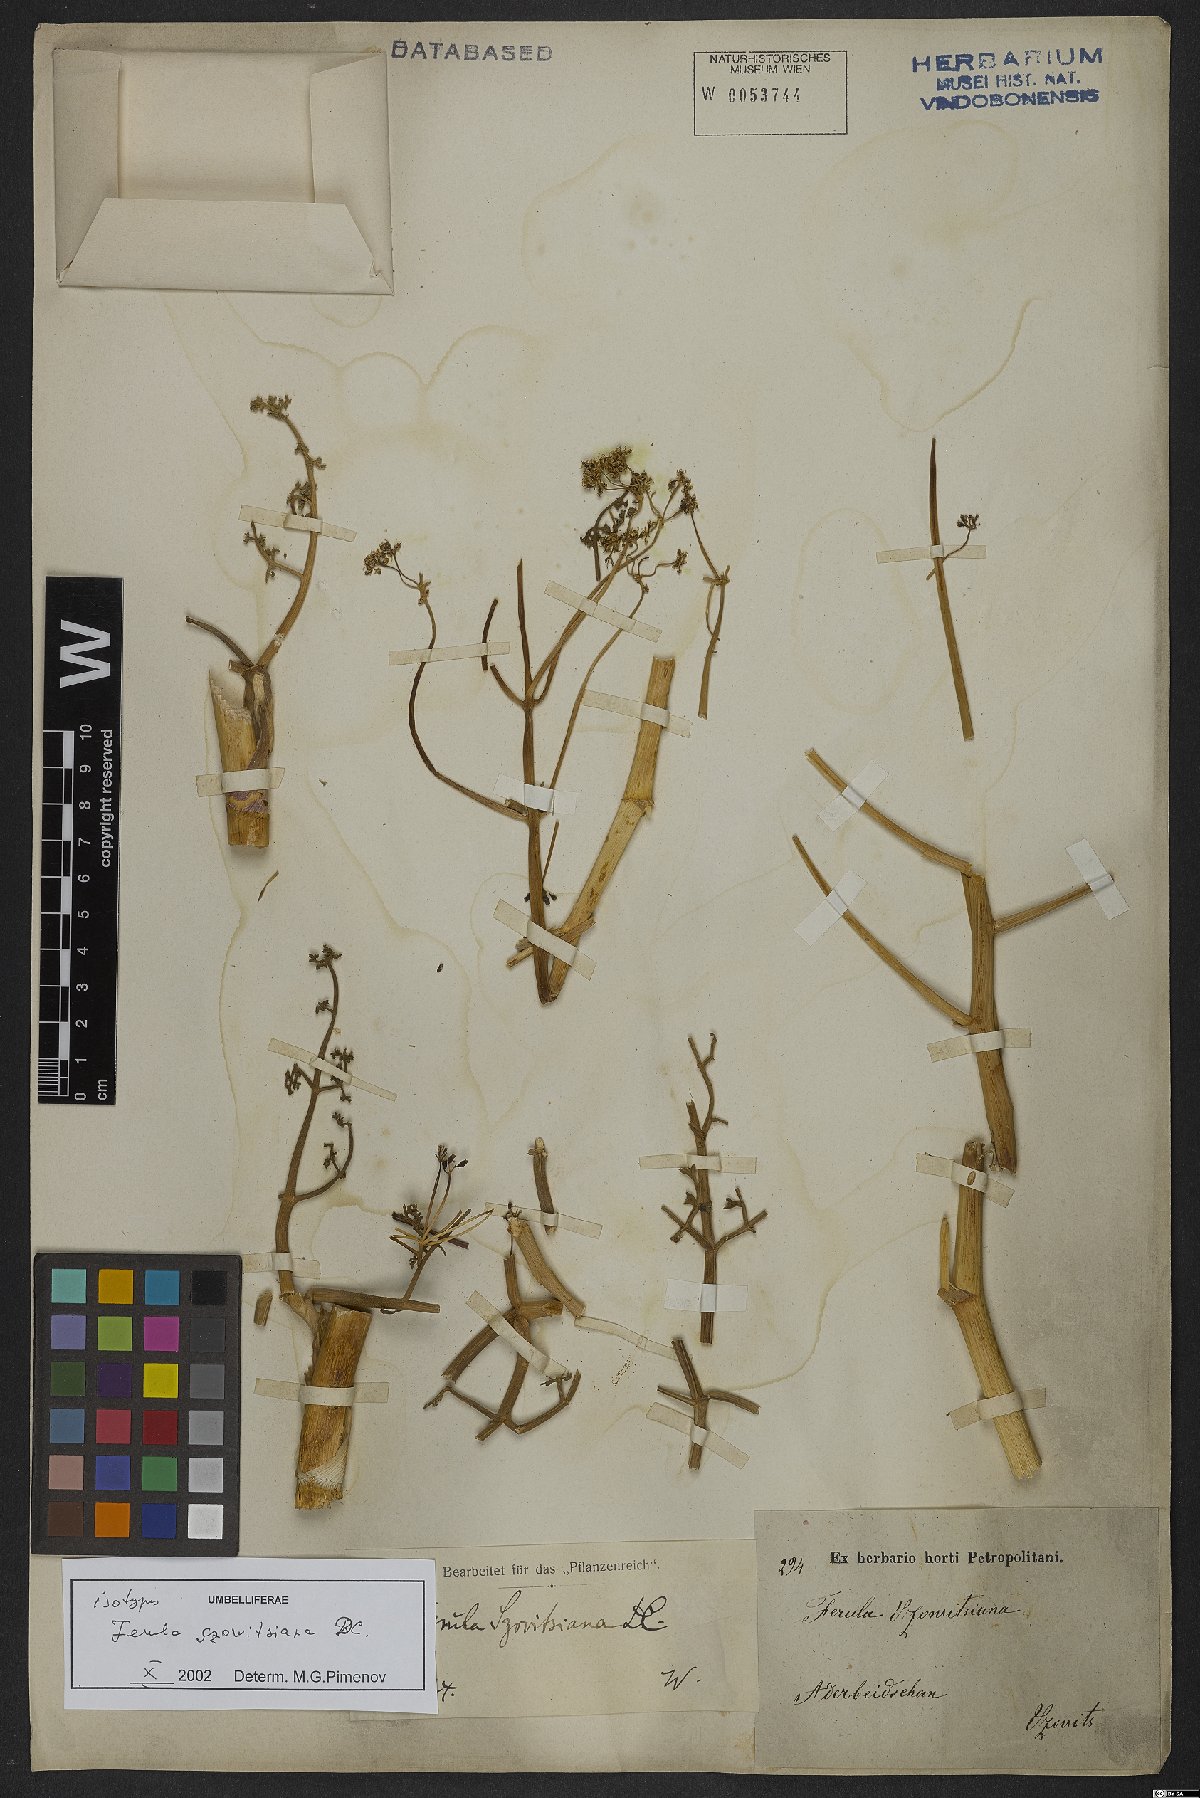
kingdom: Plantae
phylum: Tracheophyta
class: Magnoliopsida
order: Apiales
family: Apiaceae
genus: Ferula
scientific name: Ferula szowitsiana
